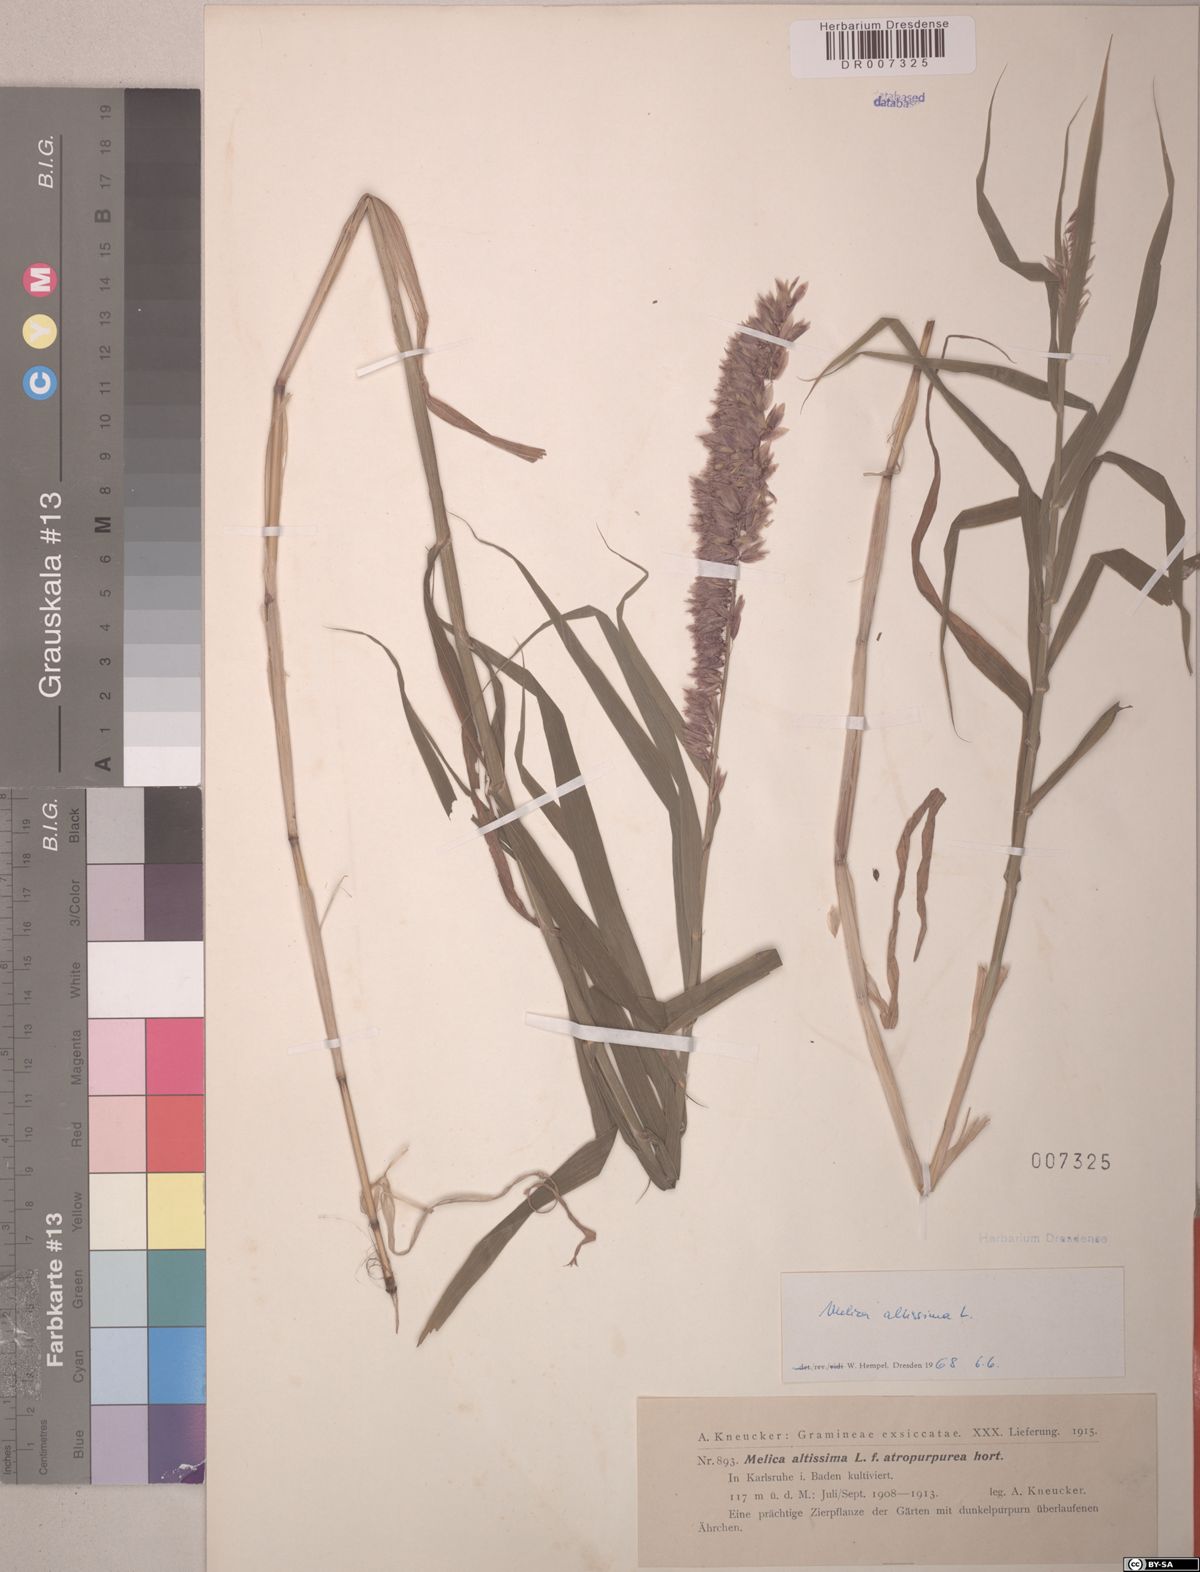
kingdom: Plantae
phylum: Tracheophyta
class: Liliopsida
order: Poales
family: Poaceae
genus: Melica
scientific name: Melica altissima
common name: Siberian melicgrass
